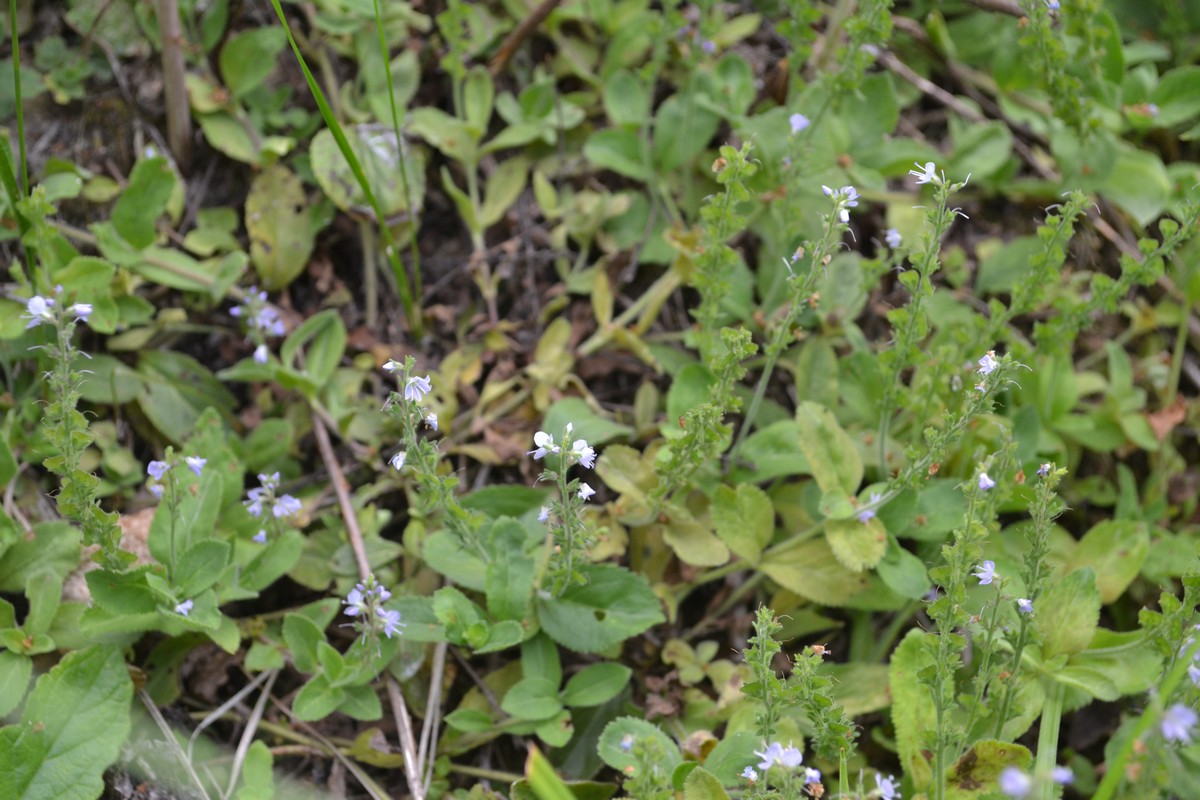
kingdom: Plantae
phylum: Tracheophyta
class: Magnoliopsida
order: Lamiales
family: Plantaginaceae
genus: Veronica
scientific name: Veronica officinalis
